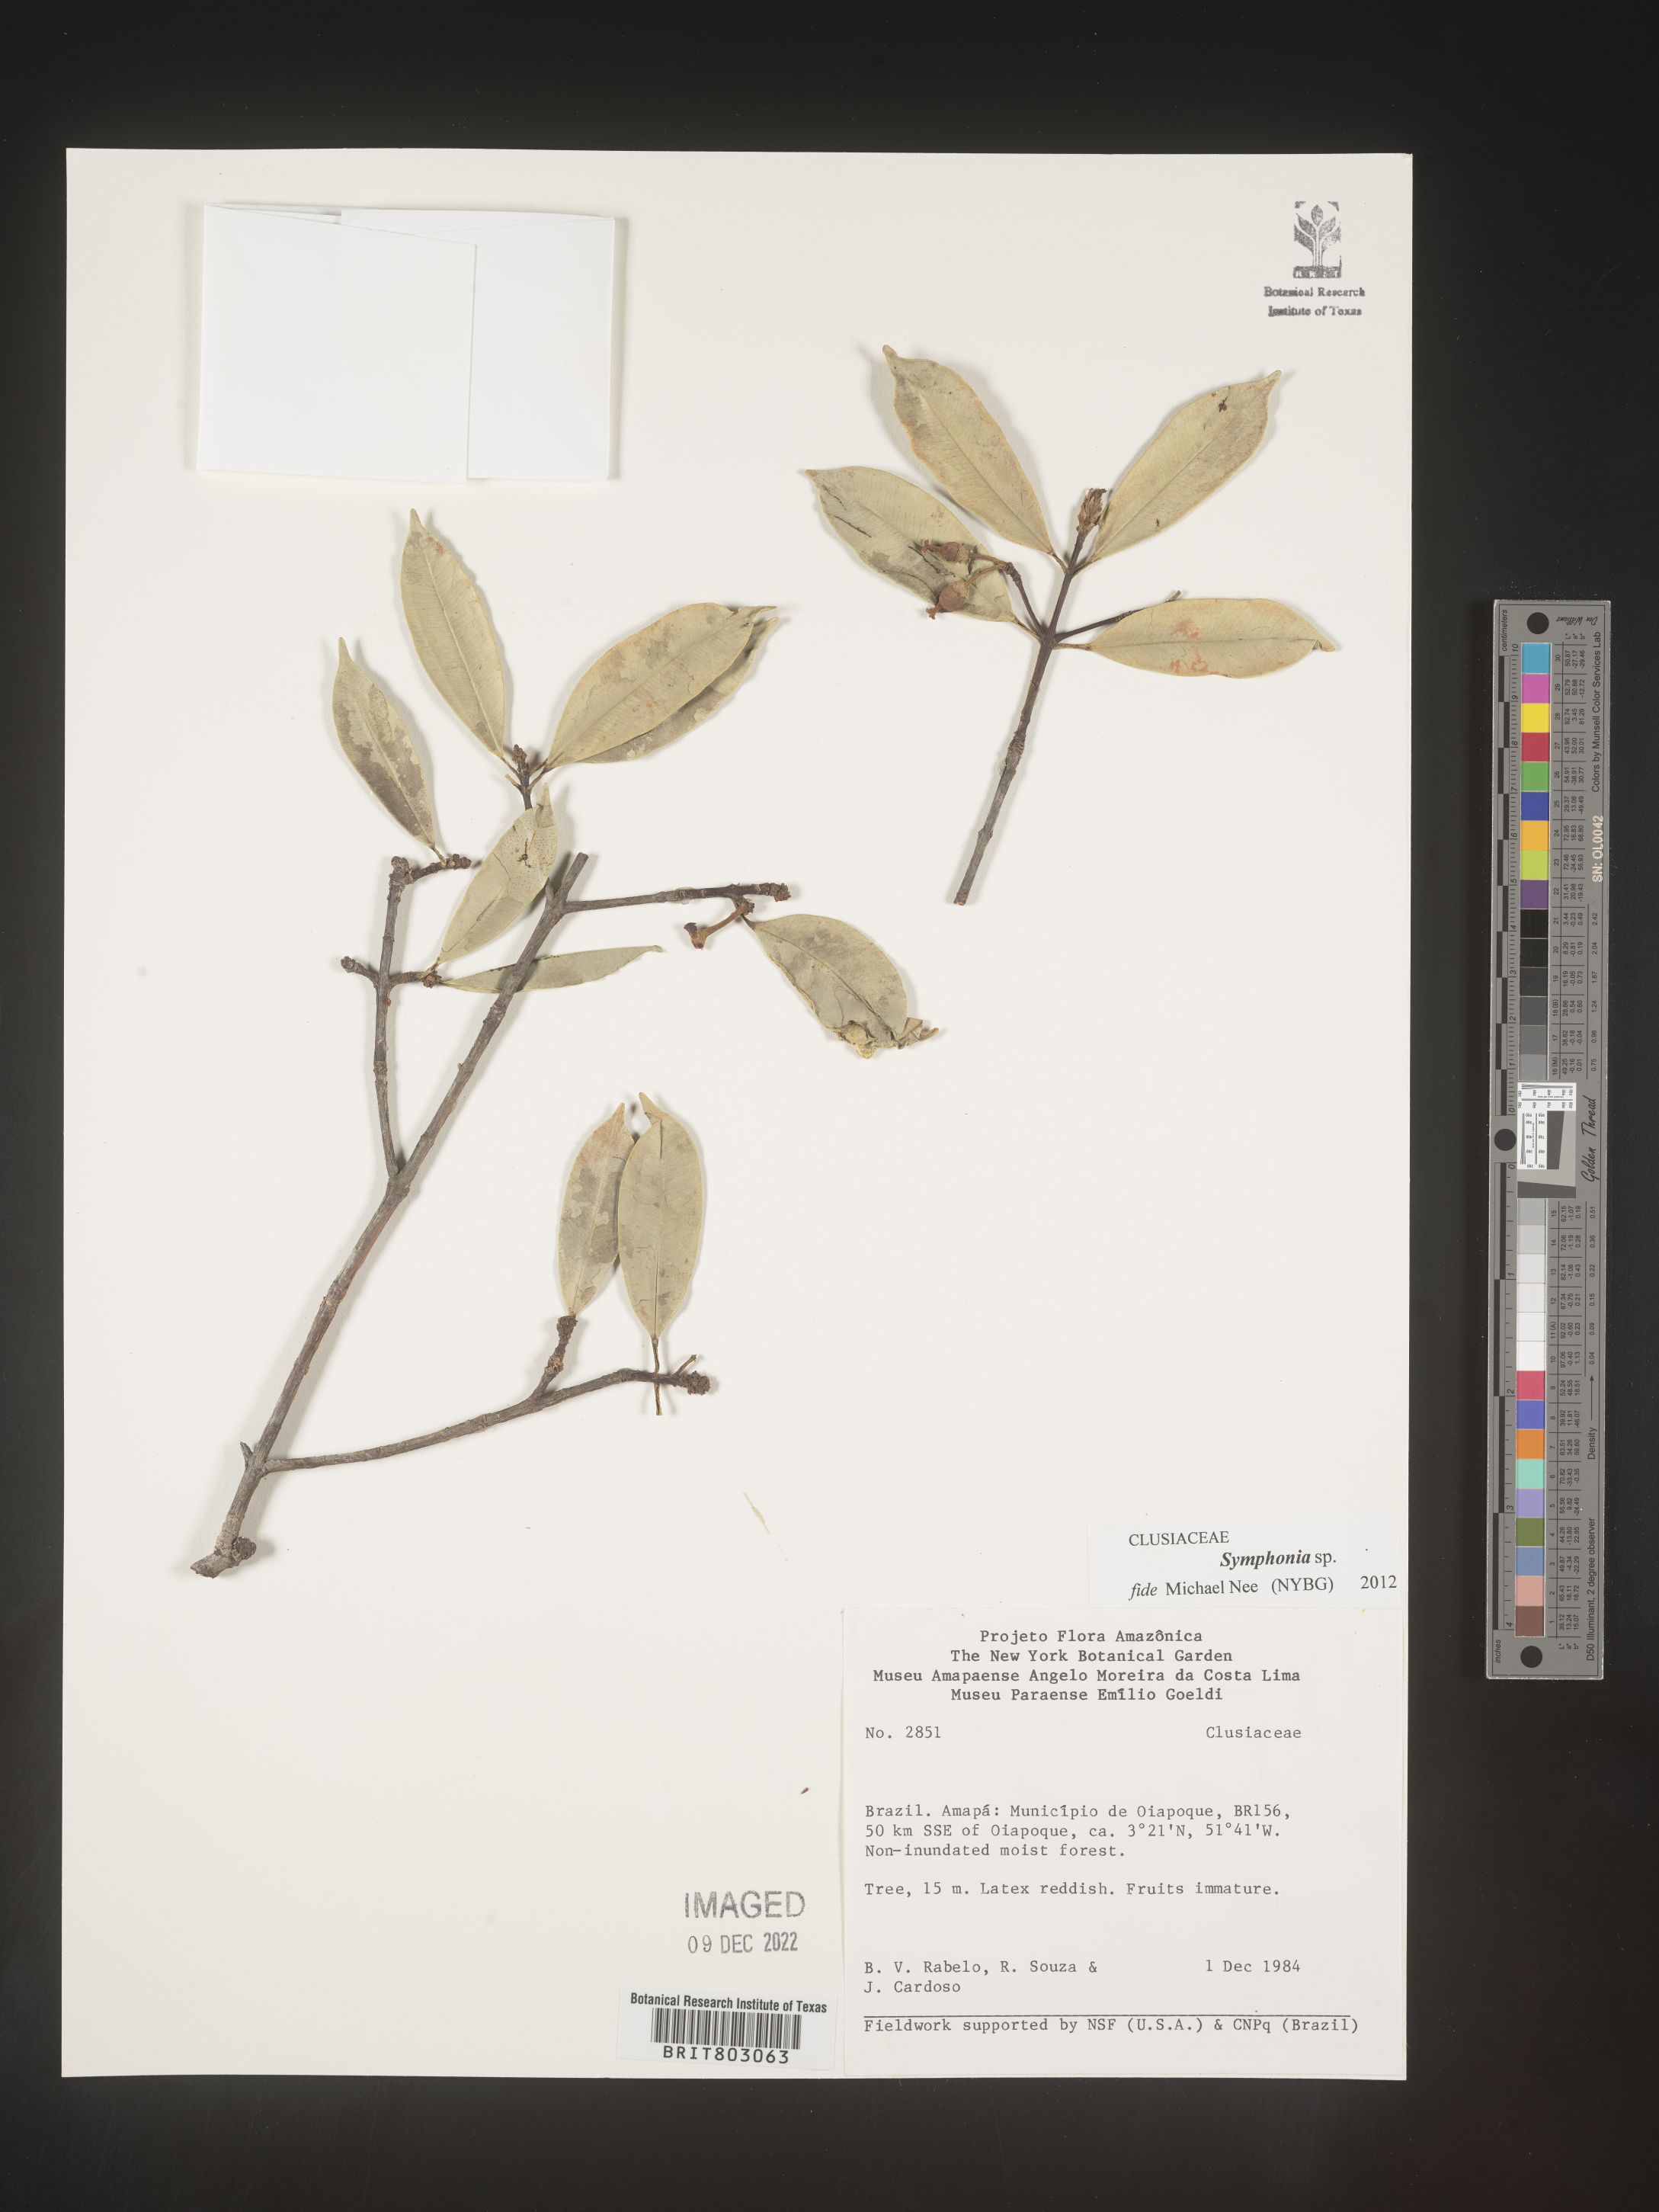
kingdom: Plantae
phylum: Tracheophyta
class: Magnoliopsida
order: Malpighiales
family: Clusiaceae
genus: Symphonia
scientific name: Symphonia
